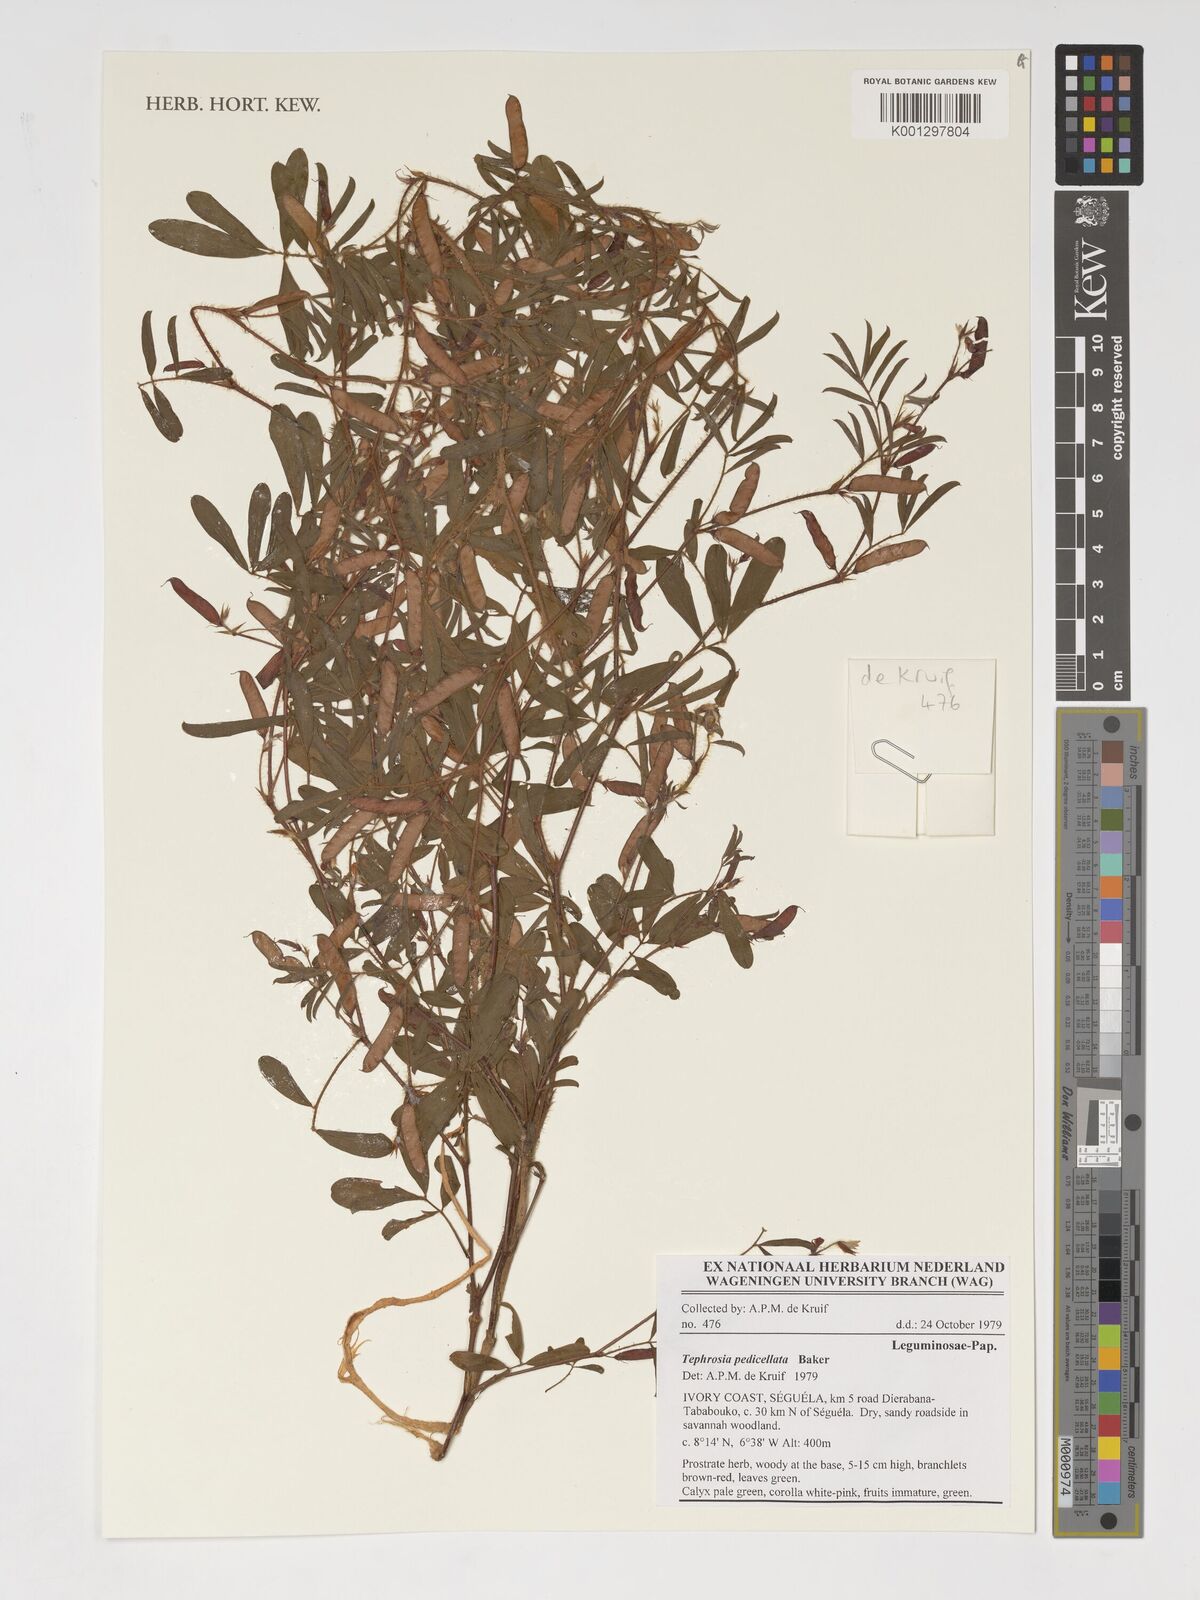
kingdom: Plantae
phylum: Tracheophyta
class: Magnoliopsida
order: Fabales
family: Fabaceae
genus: Tephrosia
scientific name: Tephrosia pedicellata
